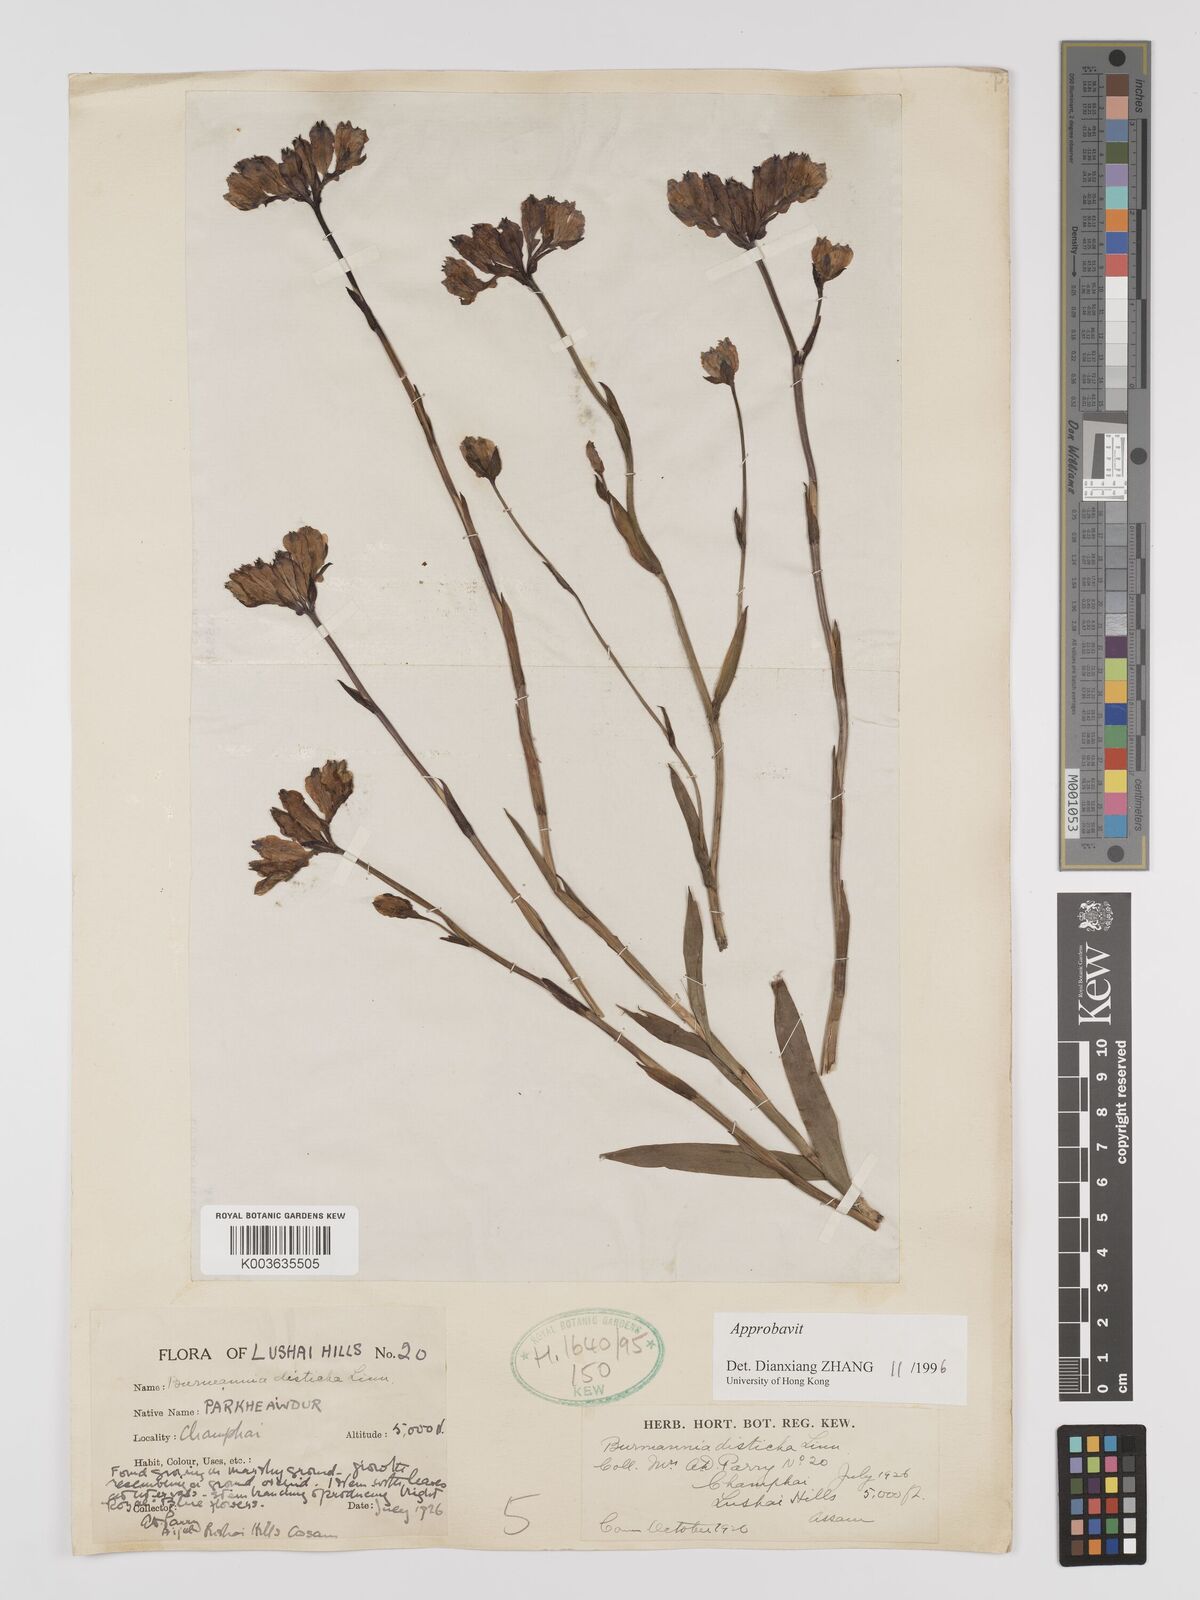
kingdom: Plantae
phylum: Tracheophyta
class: Liliopsida
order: Dioscoreales
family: Burmanniaceae
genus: Burmannia
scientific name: Burmannia disticha
